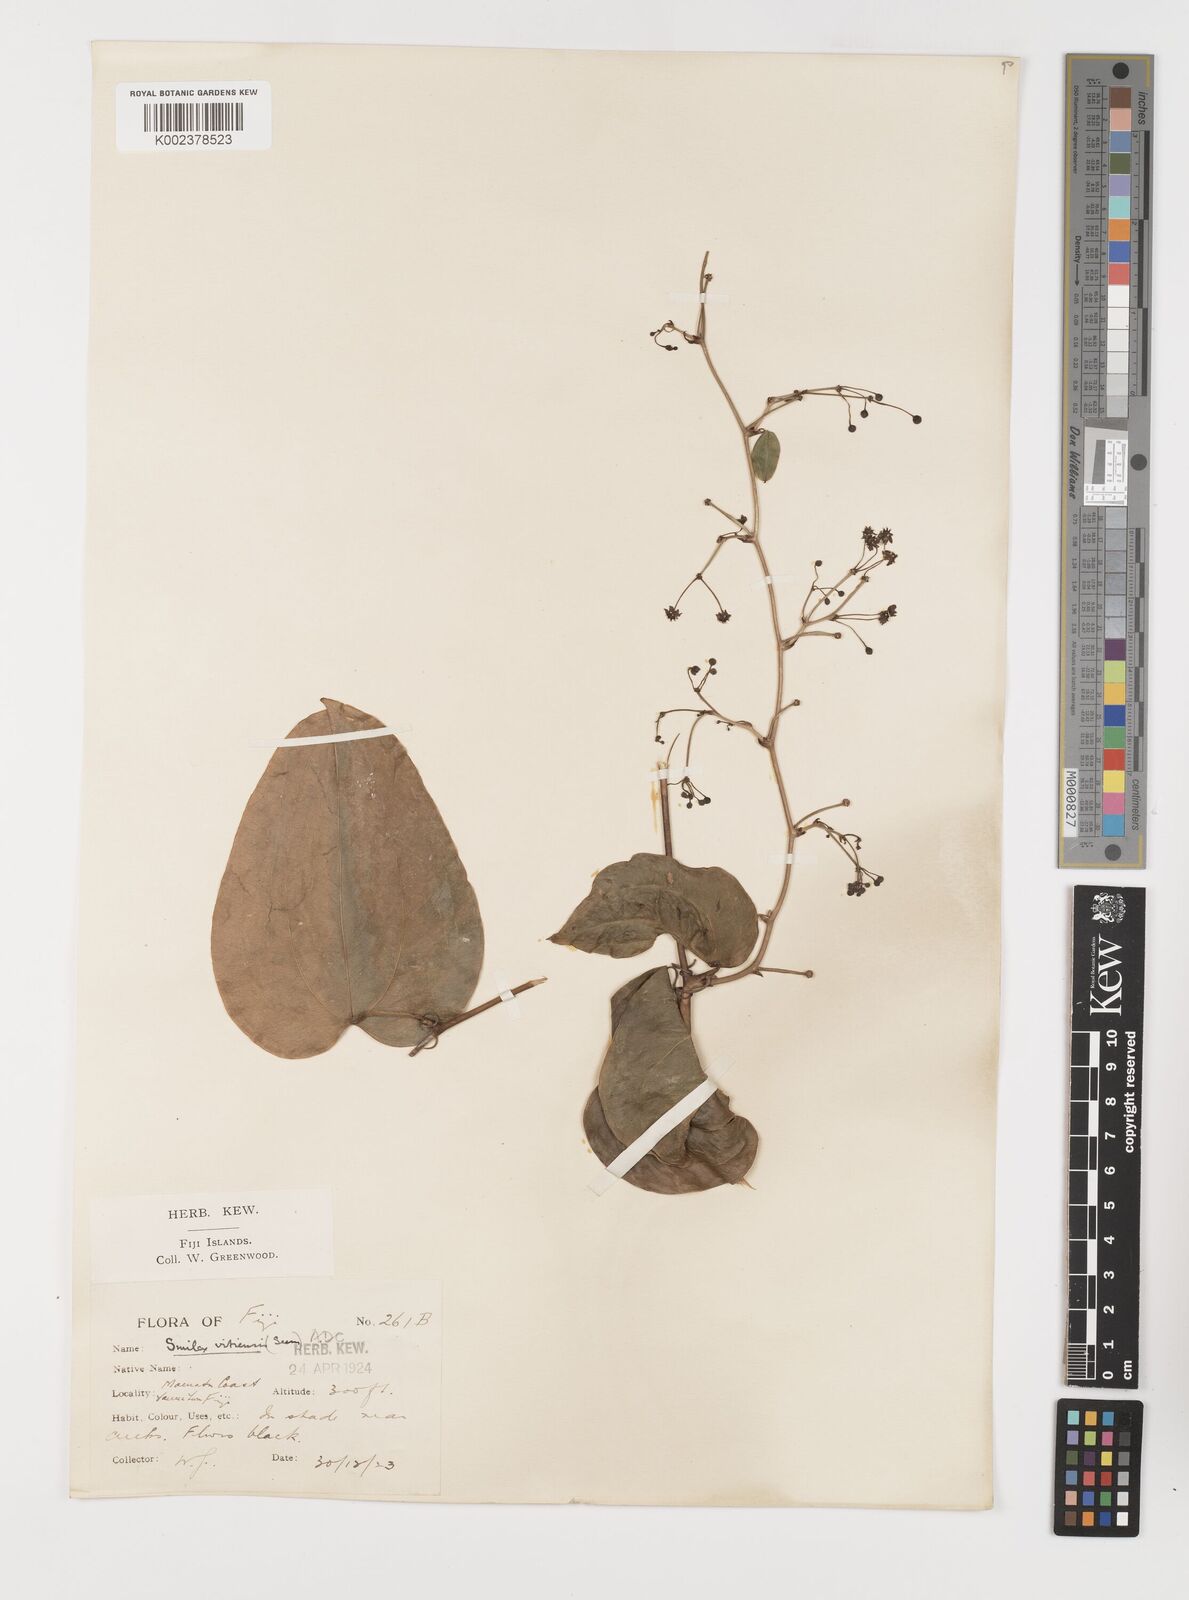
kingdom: Plantae
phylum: Tracheophyta
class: Liliopsida
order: Liliales
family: Smilacaceae
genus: Smilax
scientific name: Smilax vitiensis
